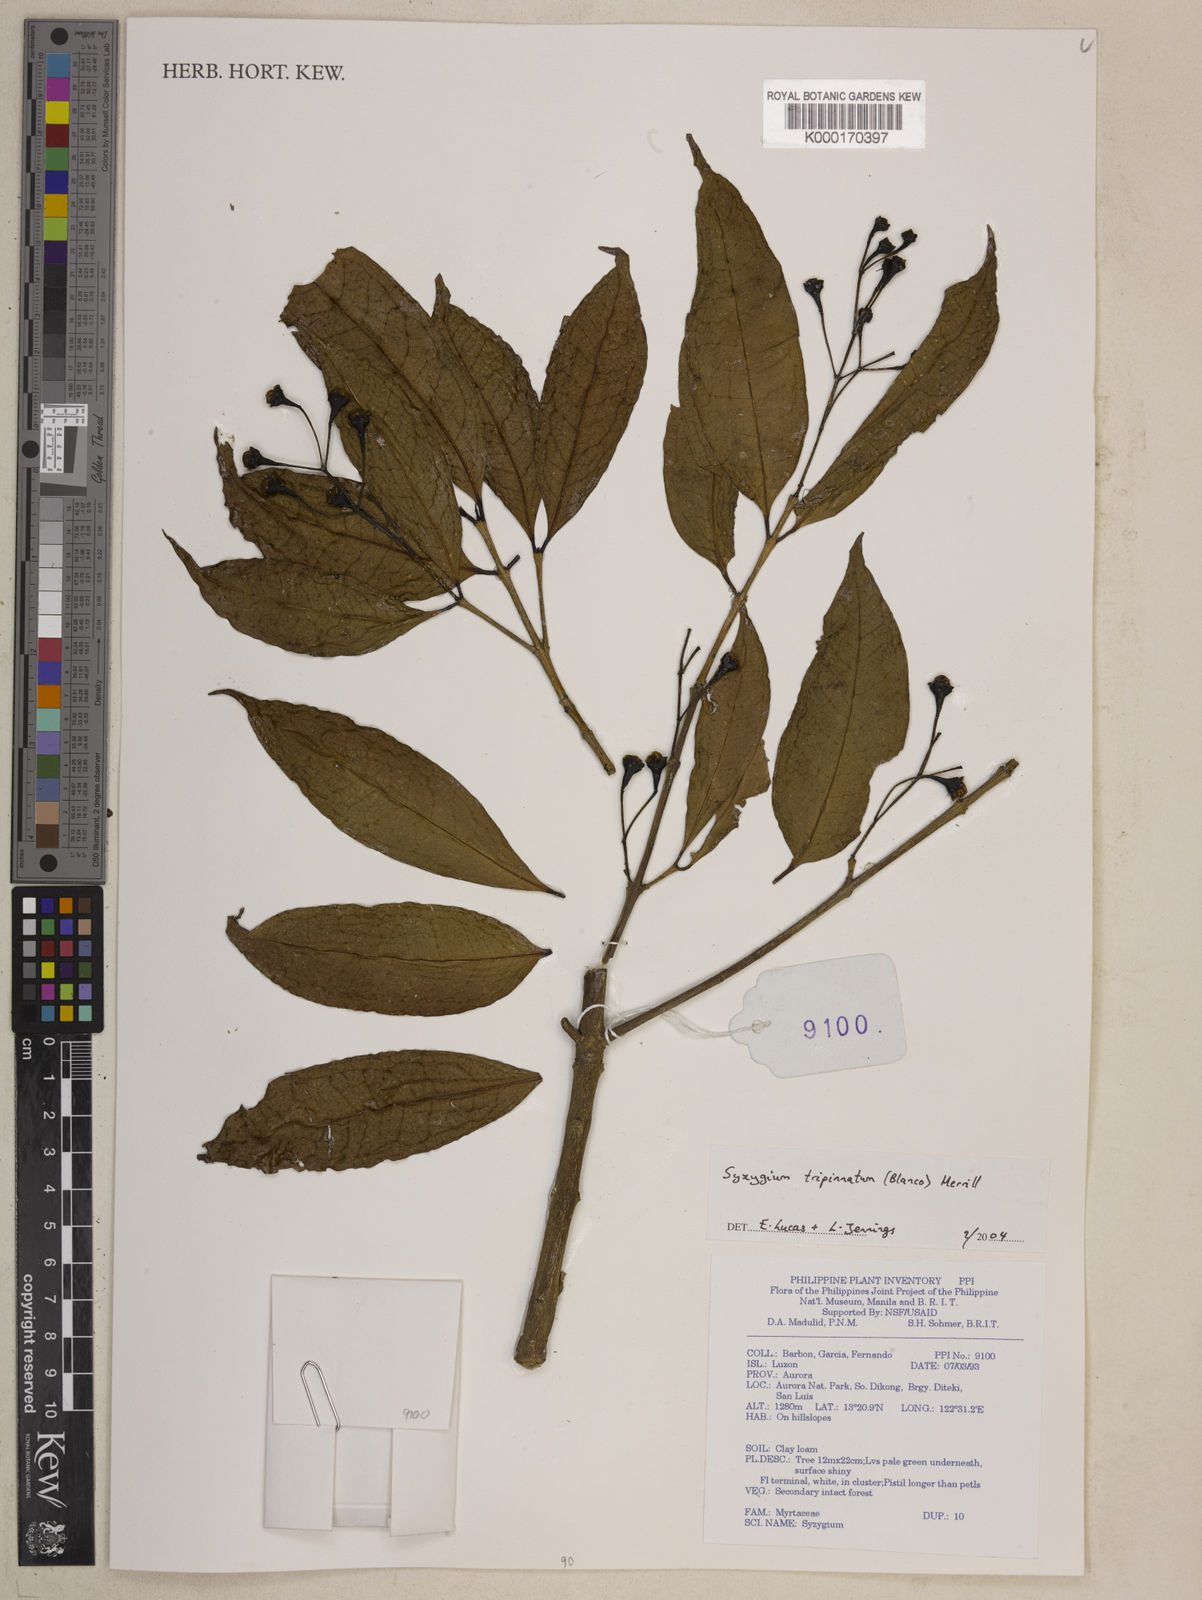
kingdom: Plantae
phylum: Tracheophyta
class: Magnoliopsida
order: Myrtales
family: Myrtaceae
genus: Syzygium
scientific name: Syzygium tripinnatum
